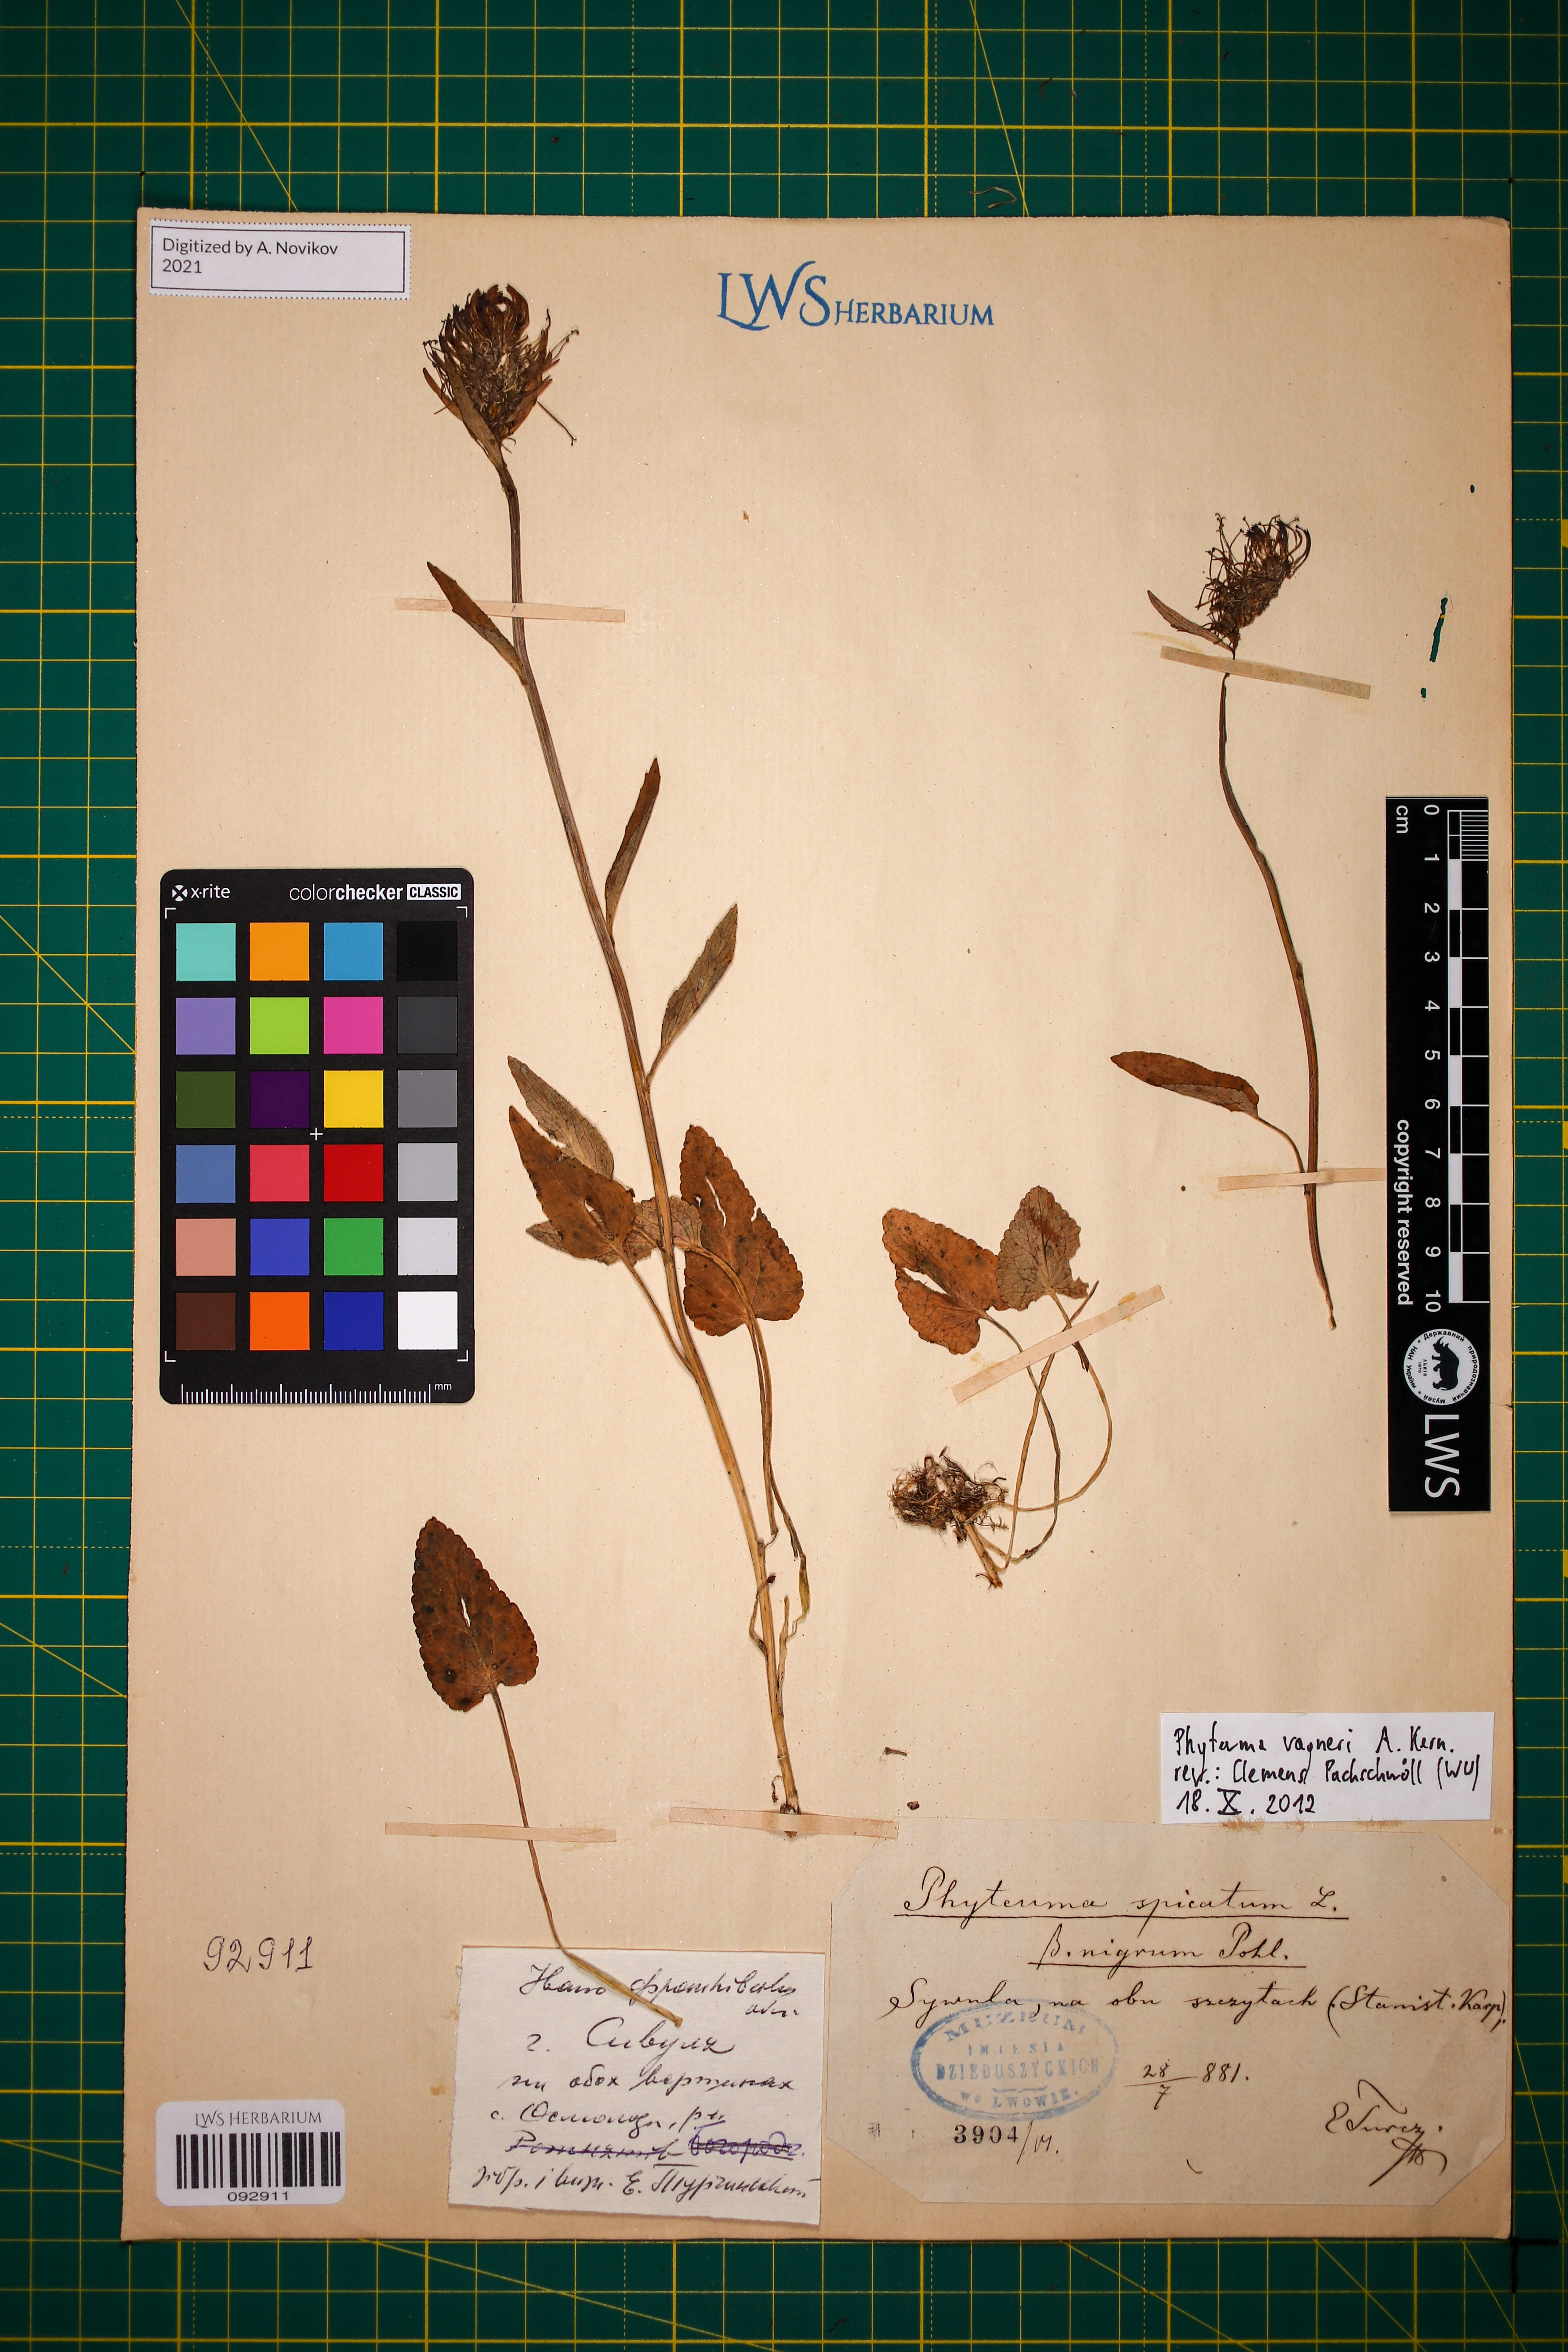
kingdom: Plantae
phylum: Tracheophyta
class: Magnoliopsida
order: Asterales
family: Campanulaceae
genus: Phyteuma
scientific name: Phyteuma vagneri
